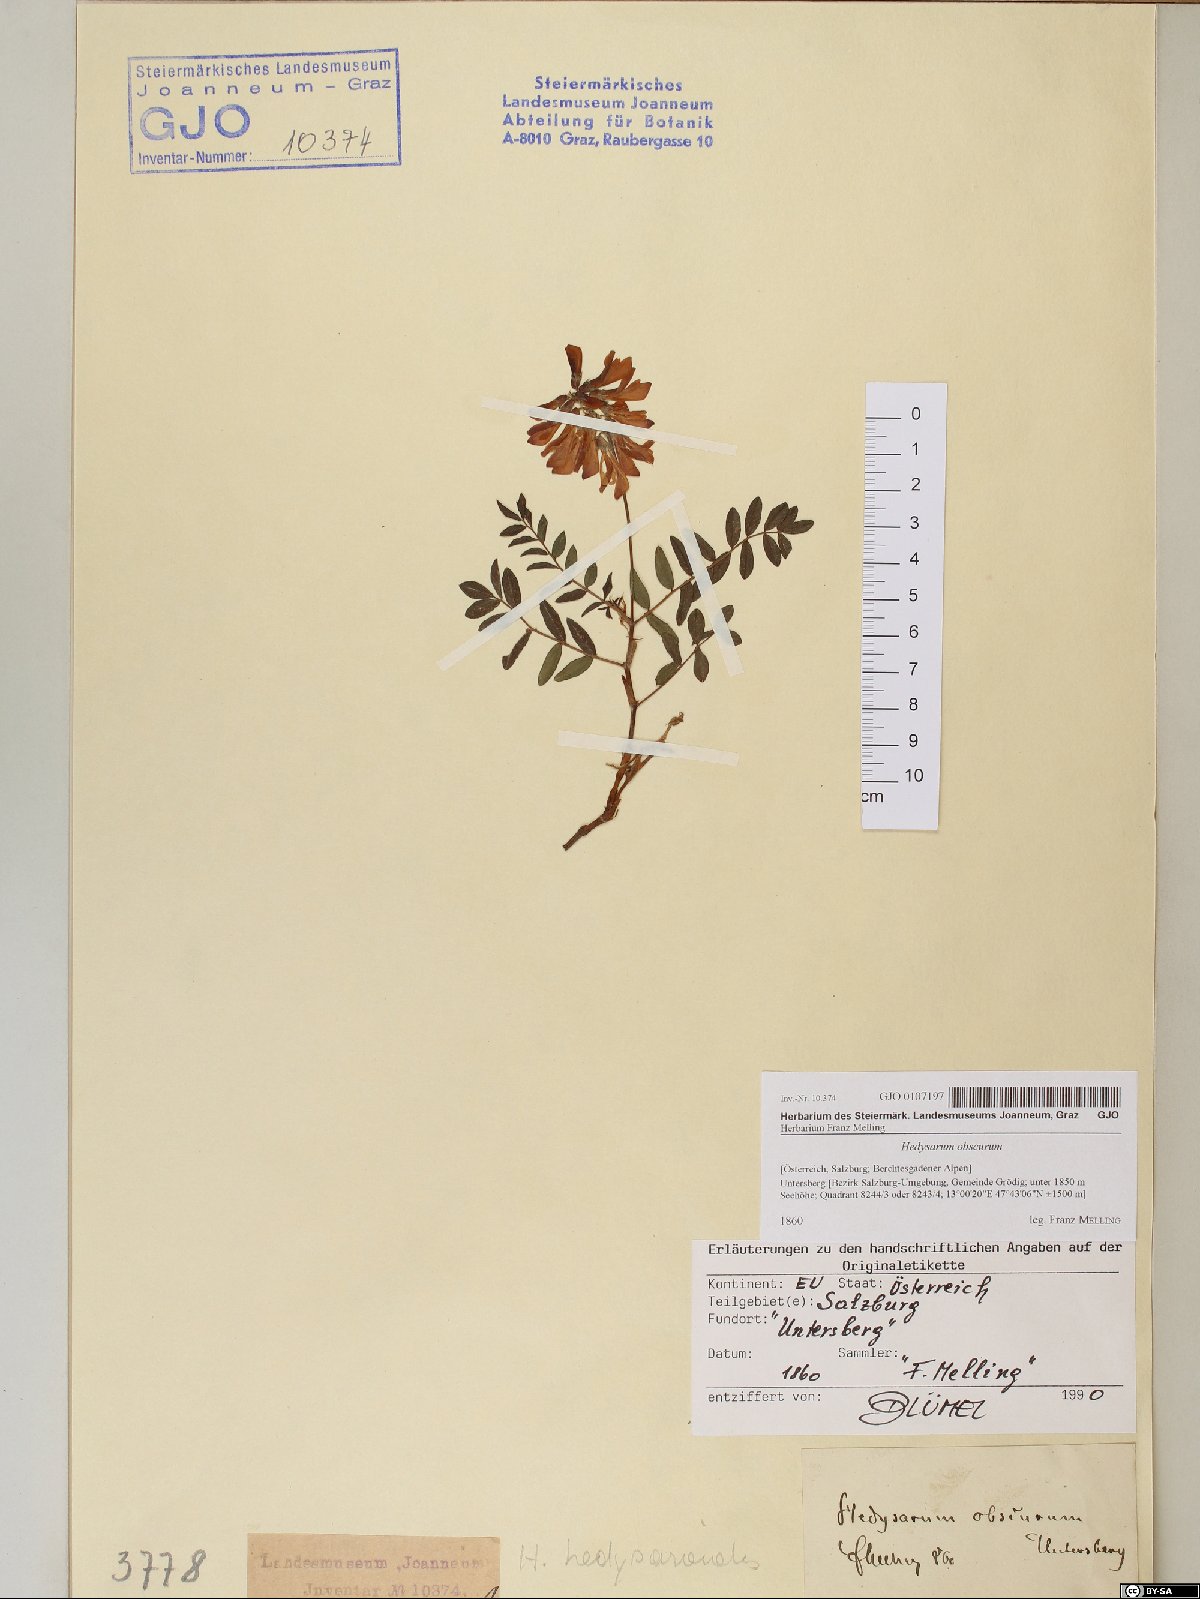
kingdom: Plantae
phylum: Tracheophyta
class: Magnoliopsida
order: Fabales
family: Fabaceae
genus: Hedysarum
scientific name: Hedysarum hedysaroides
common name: Alpine french-honeysuckle
